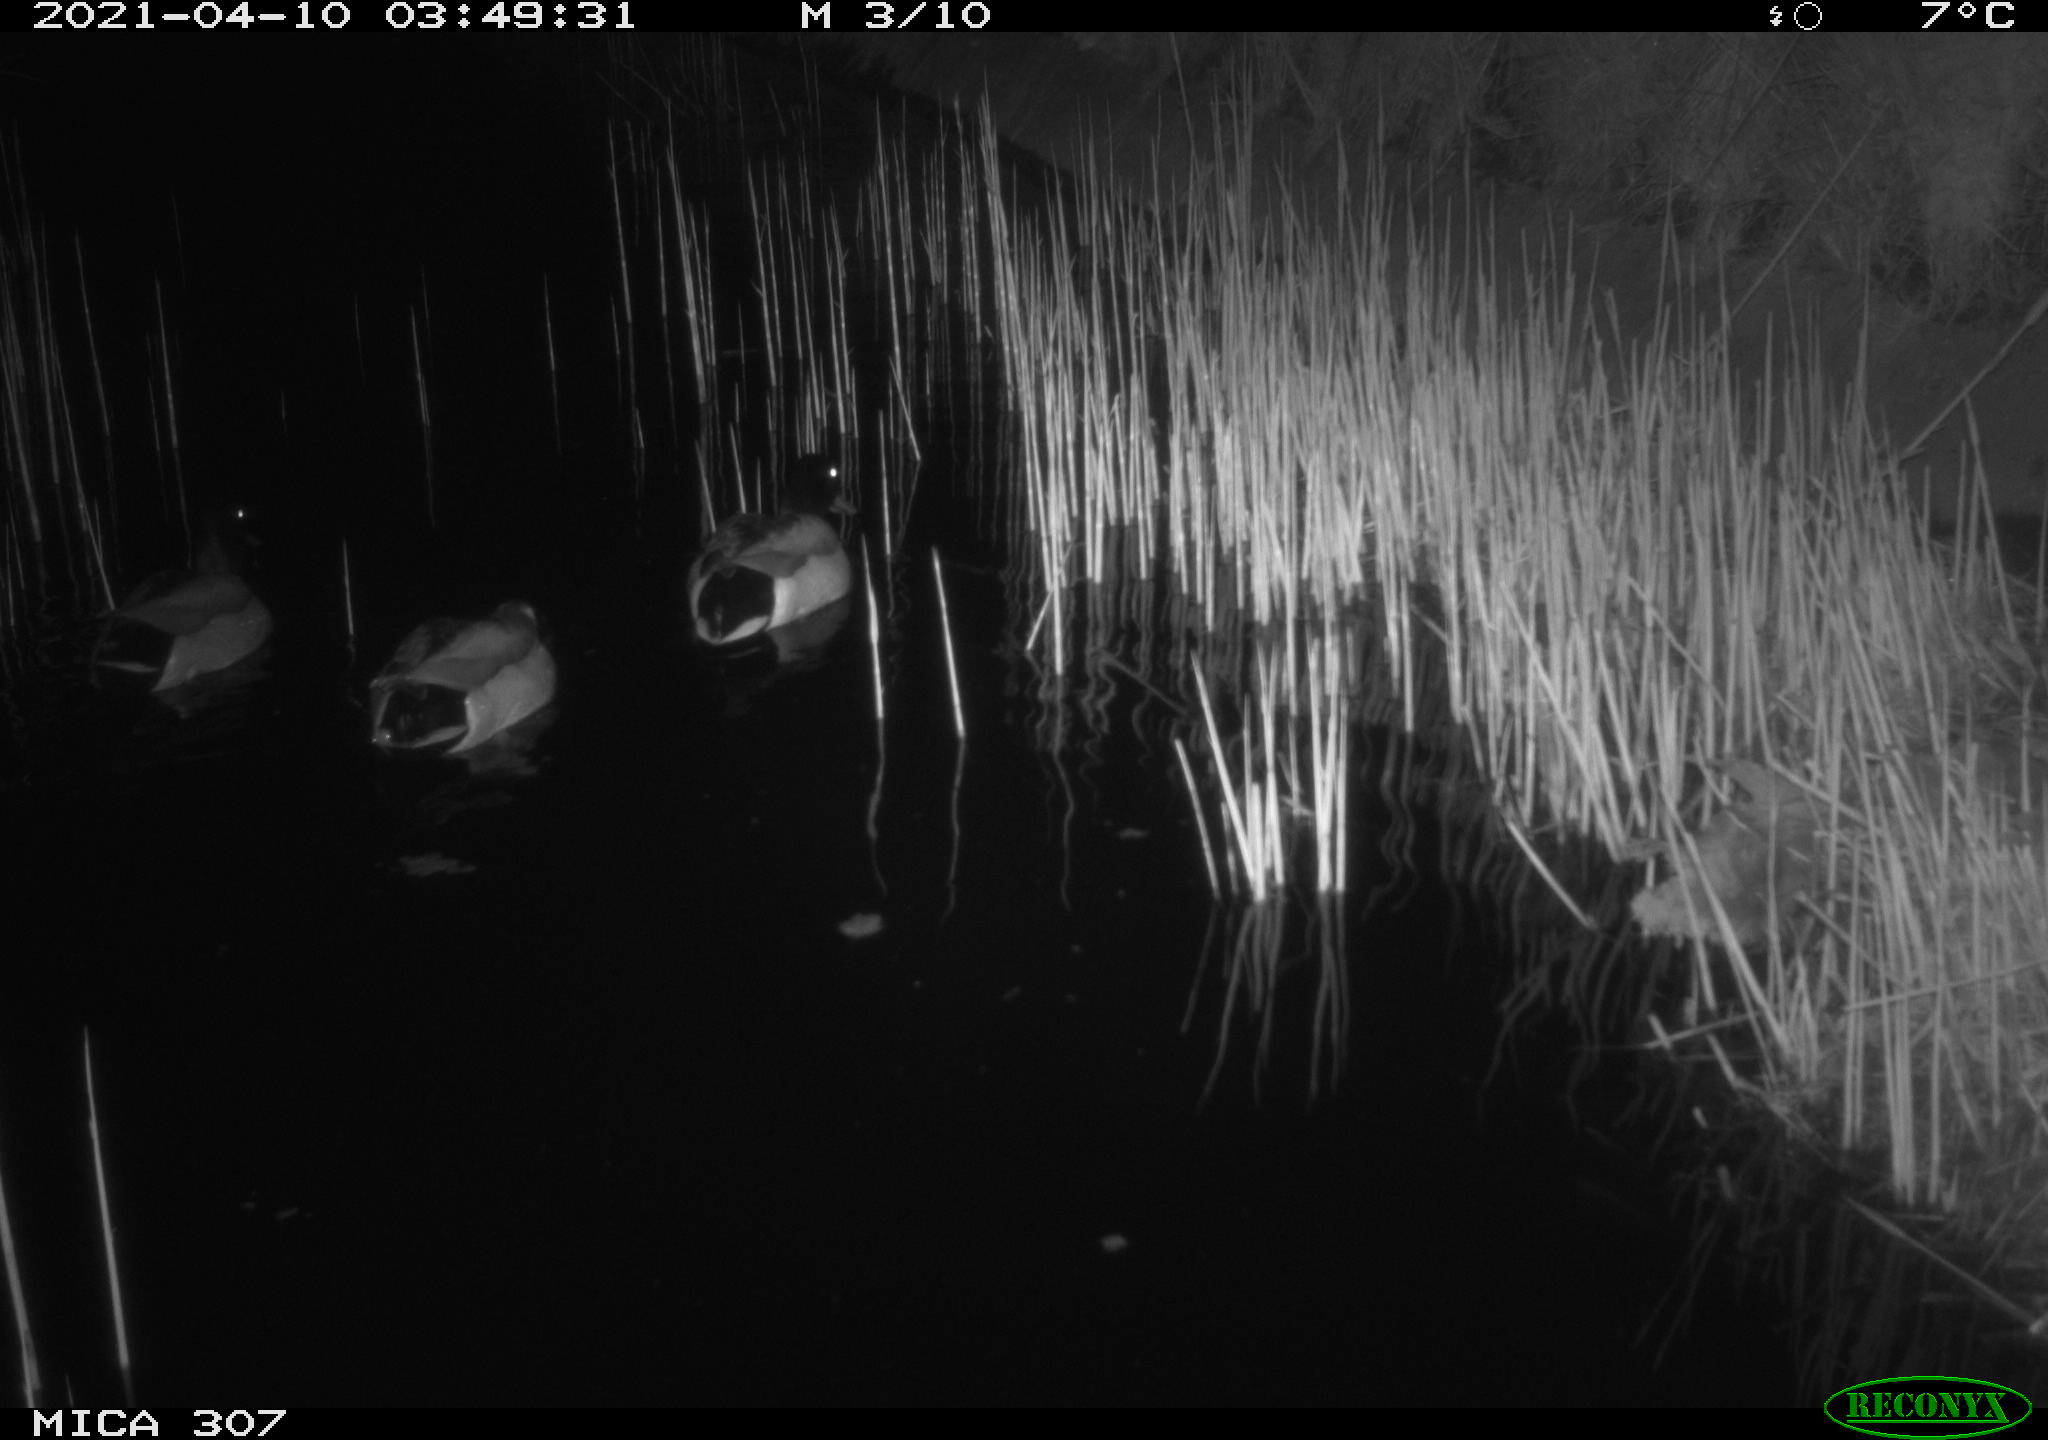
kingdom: Animalia
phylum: Chordata
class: Aves
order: Anseriformes
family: Anatidae
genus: Anas
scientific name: Anas platyrhynchos
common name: Mallard
